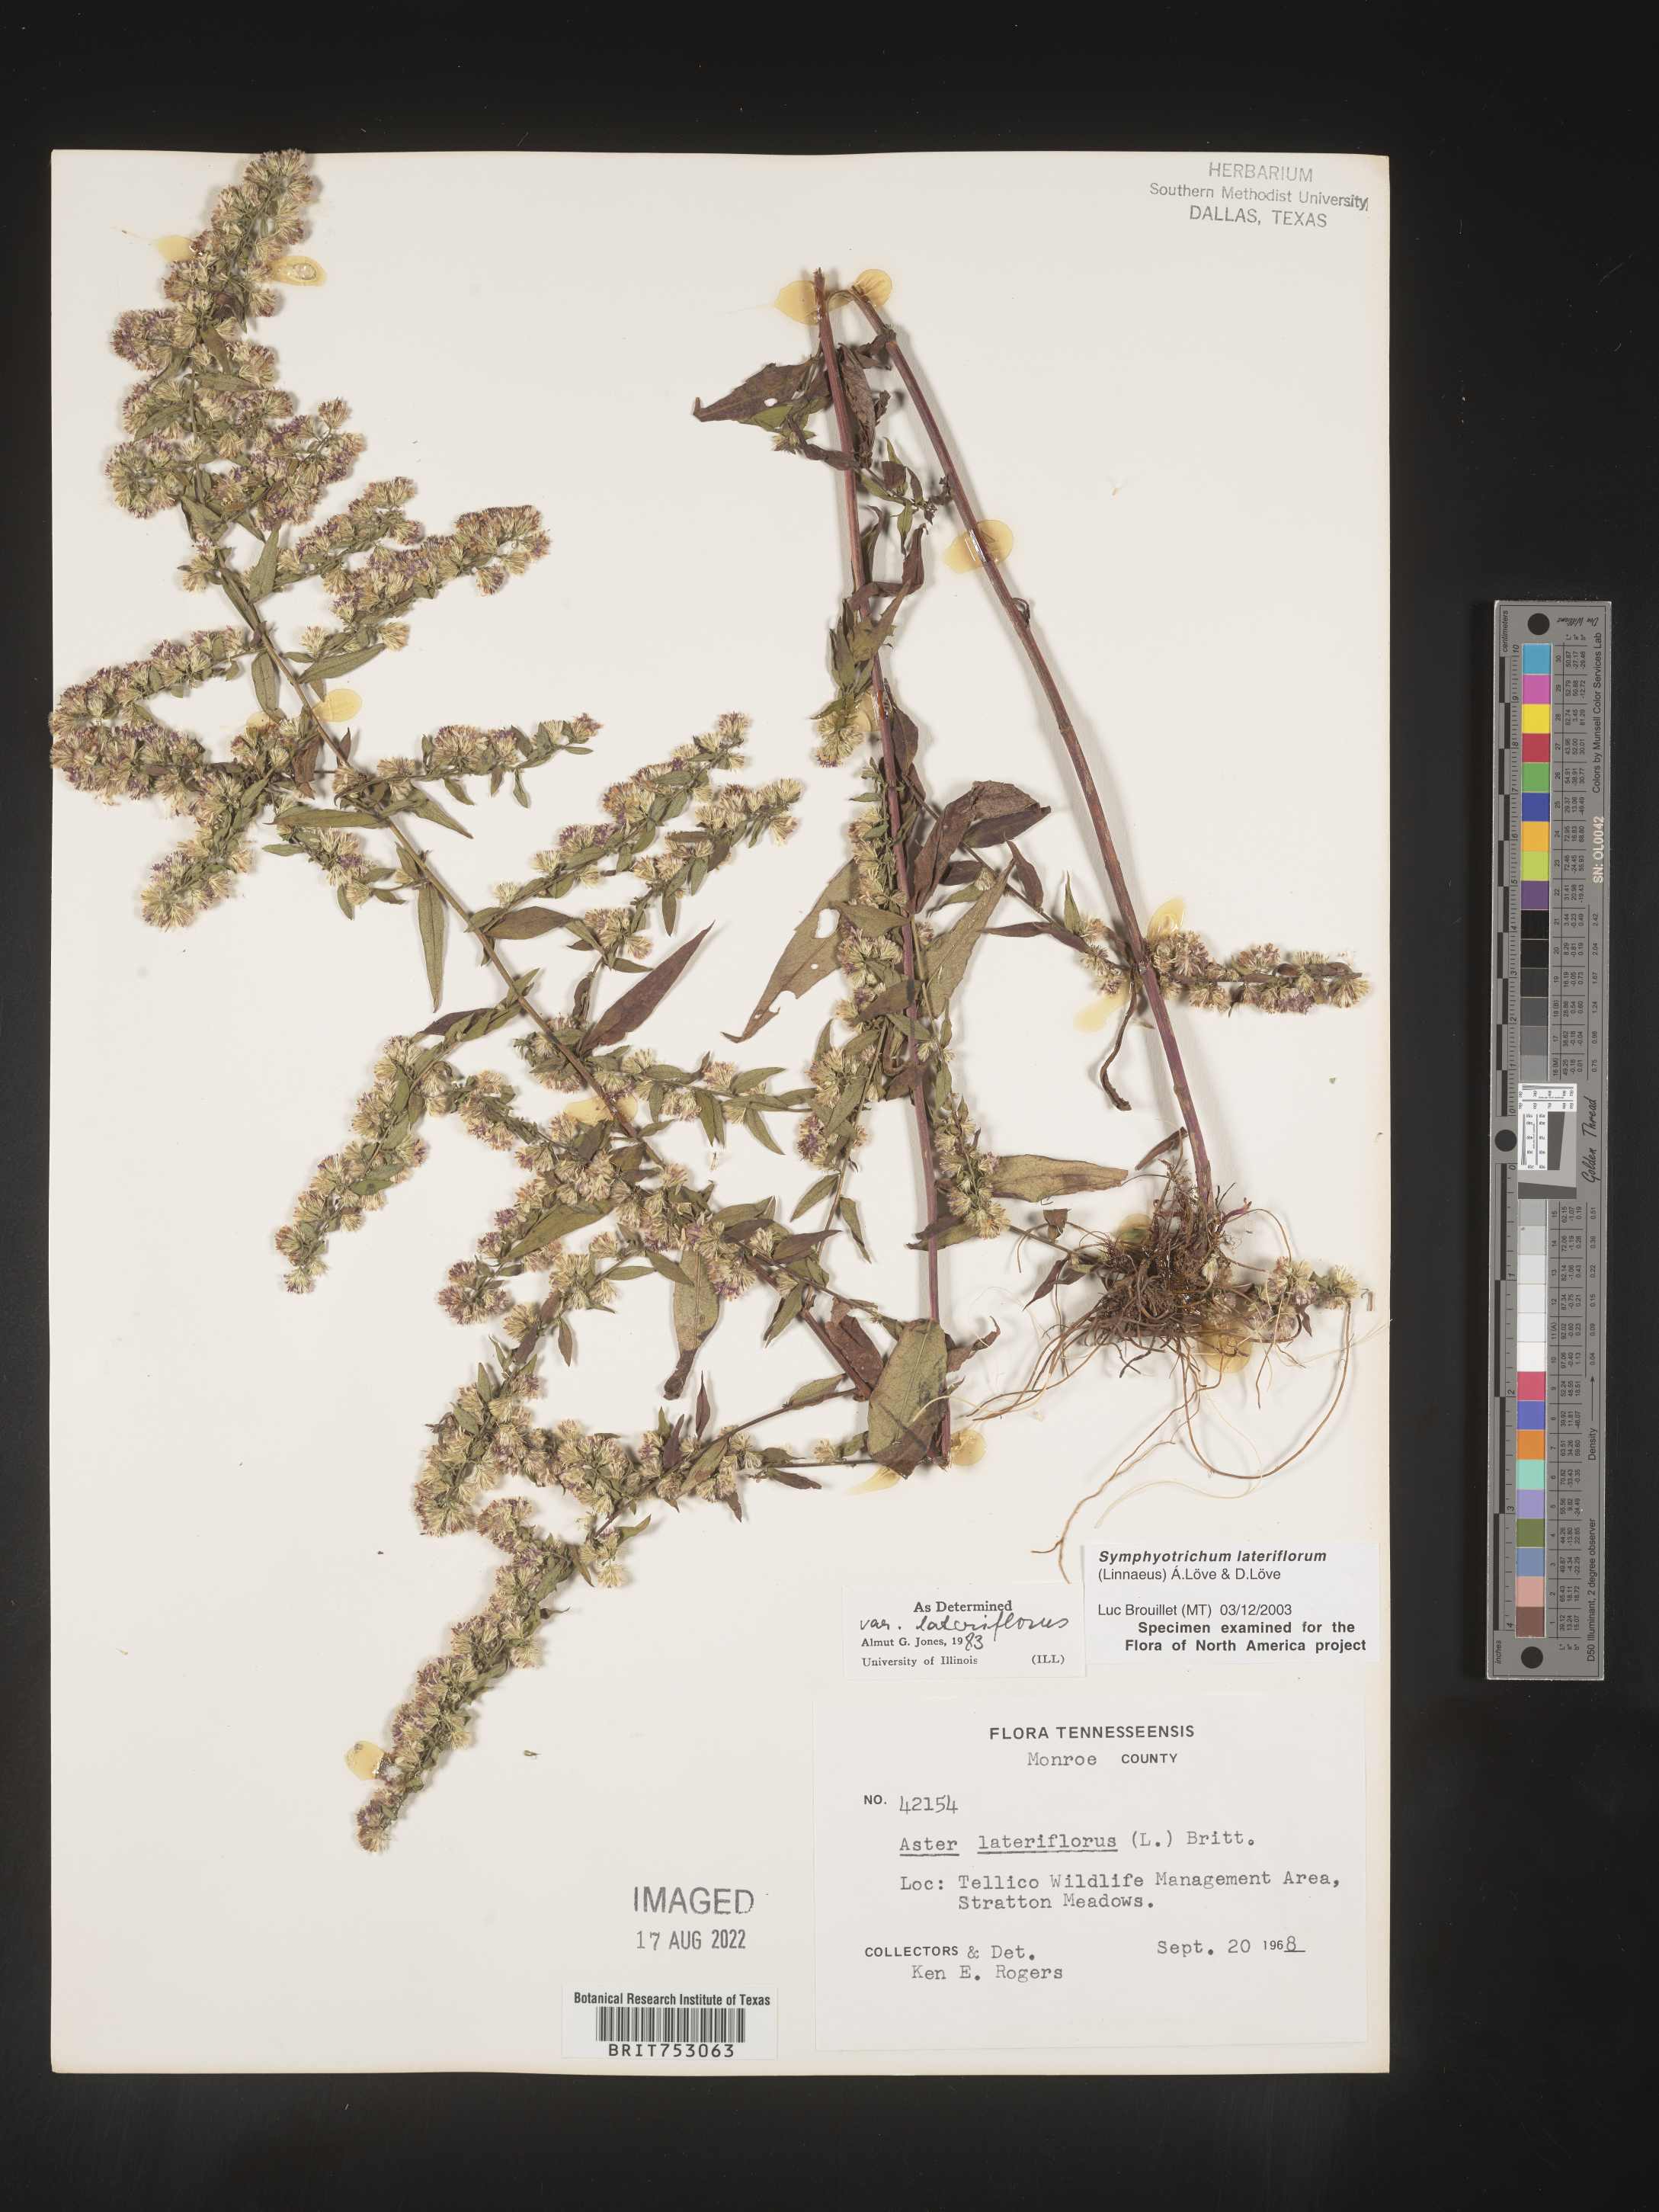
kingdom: Plantae
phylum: Tracheophyta
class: Magnoliopsida
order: Asterales
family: Asteraceae
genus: Symphyotrichum
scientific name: Symphyotrichum lateriflorum
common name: Calico aster
